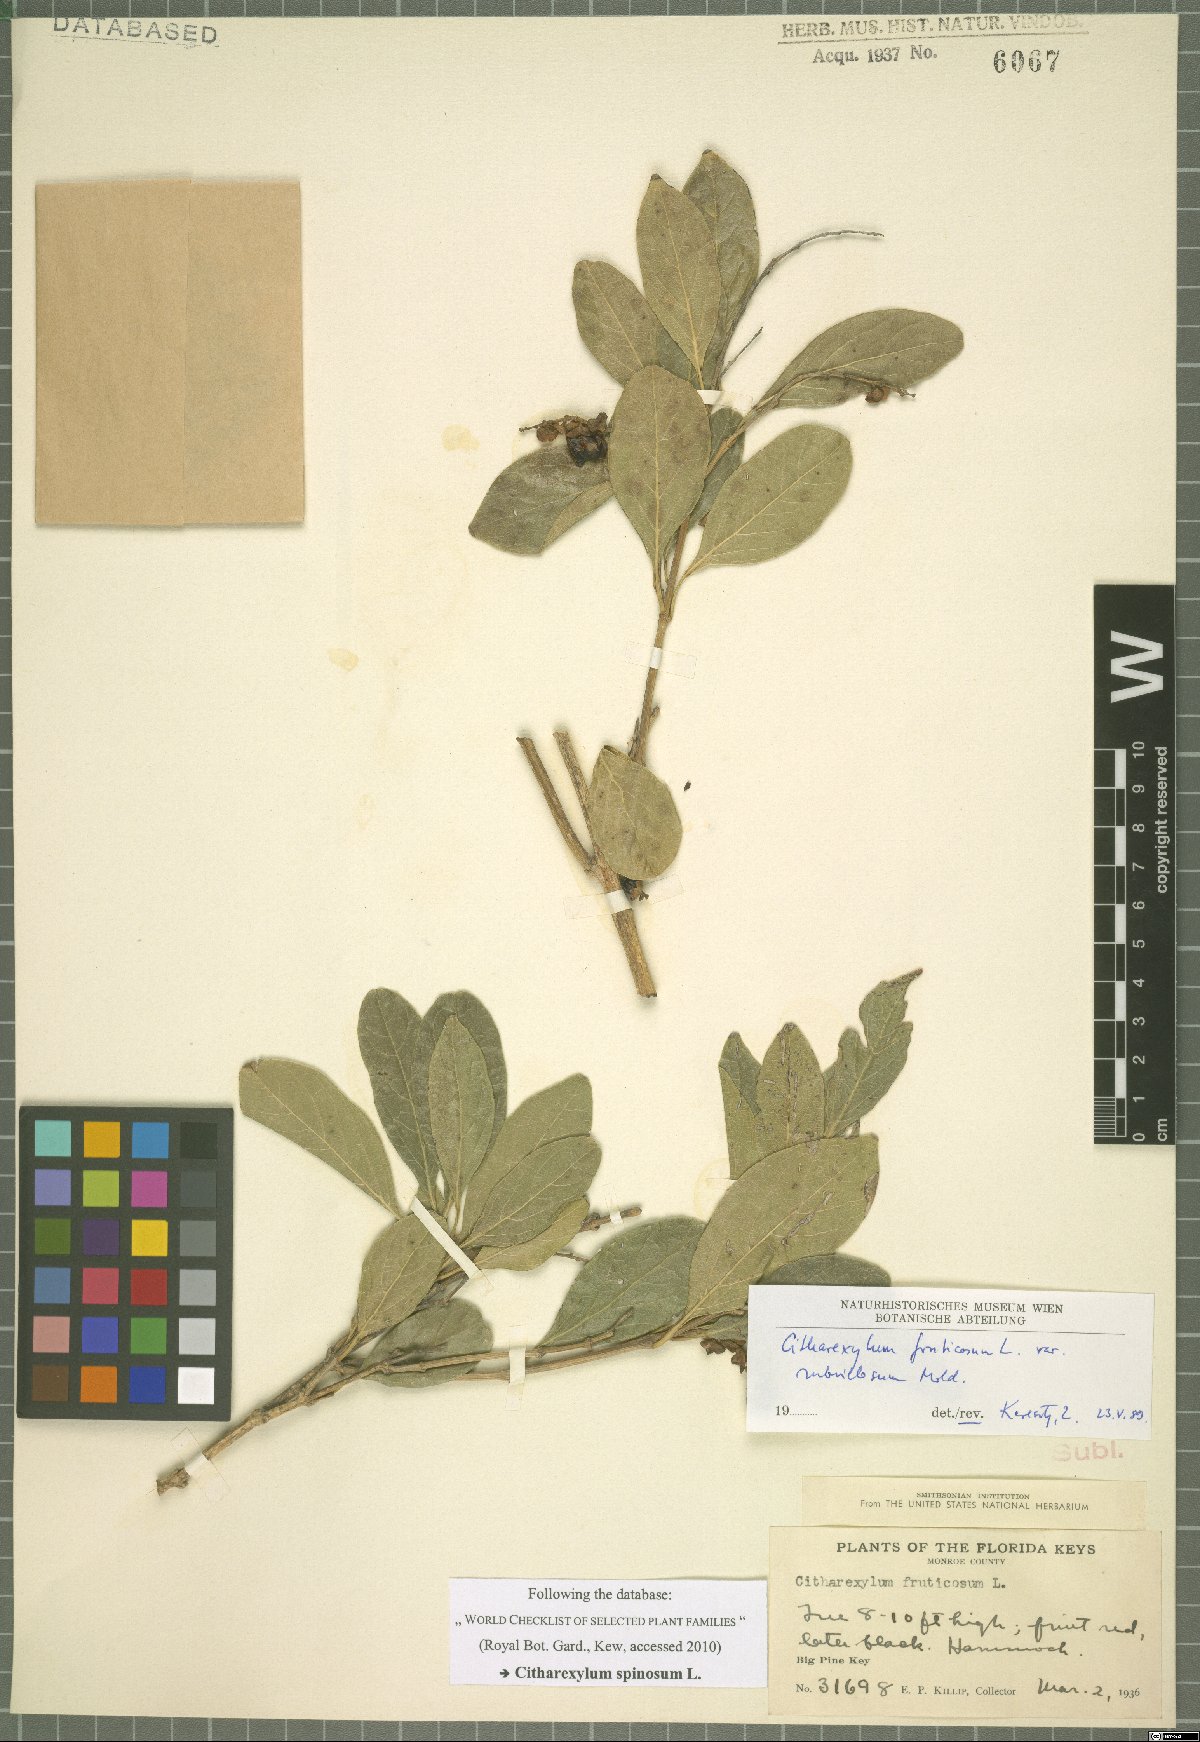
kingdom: Plantae
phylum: Tracheophyta
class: Magnoliopsida
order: Lamiales
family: Verbenaceae
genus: Citharexylum
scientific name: Citharexylum spinosum
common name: Fiddlewood
